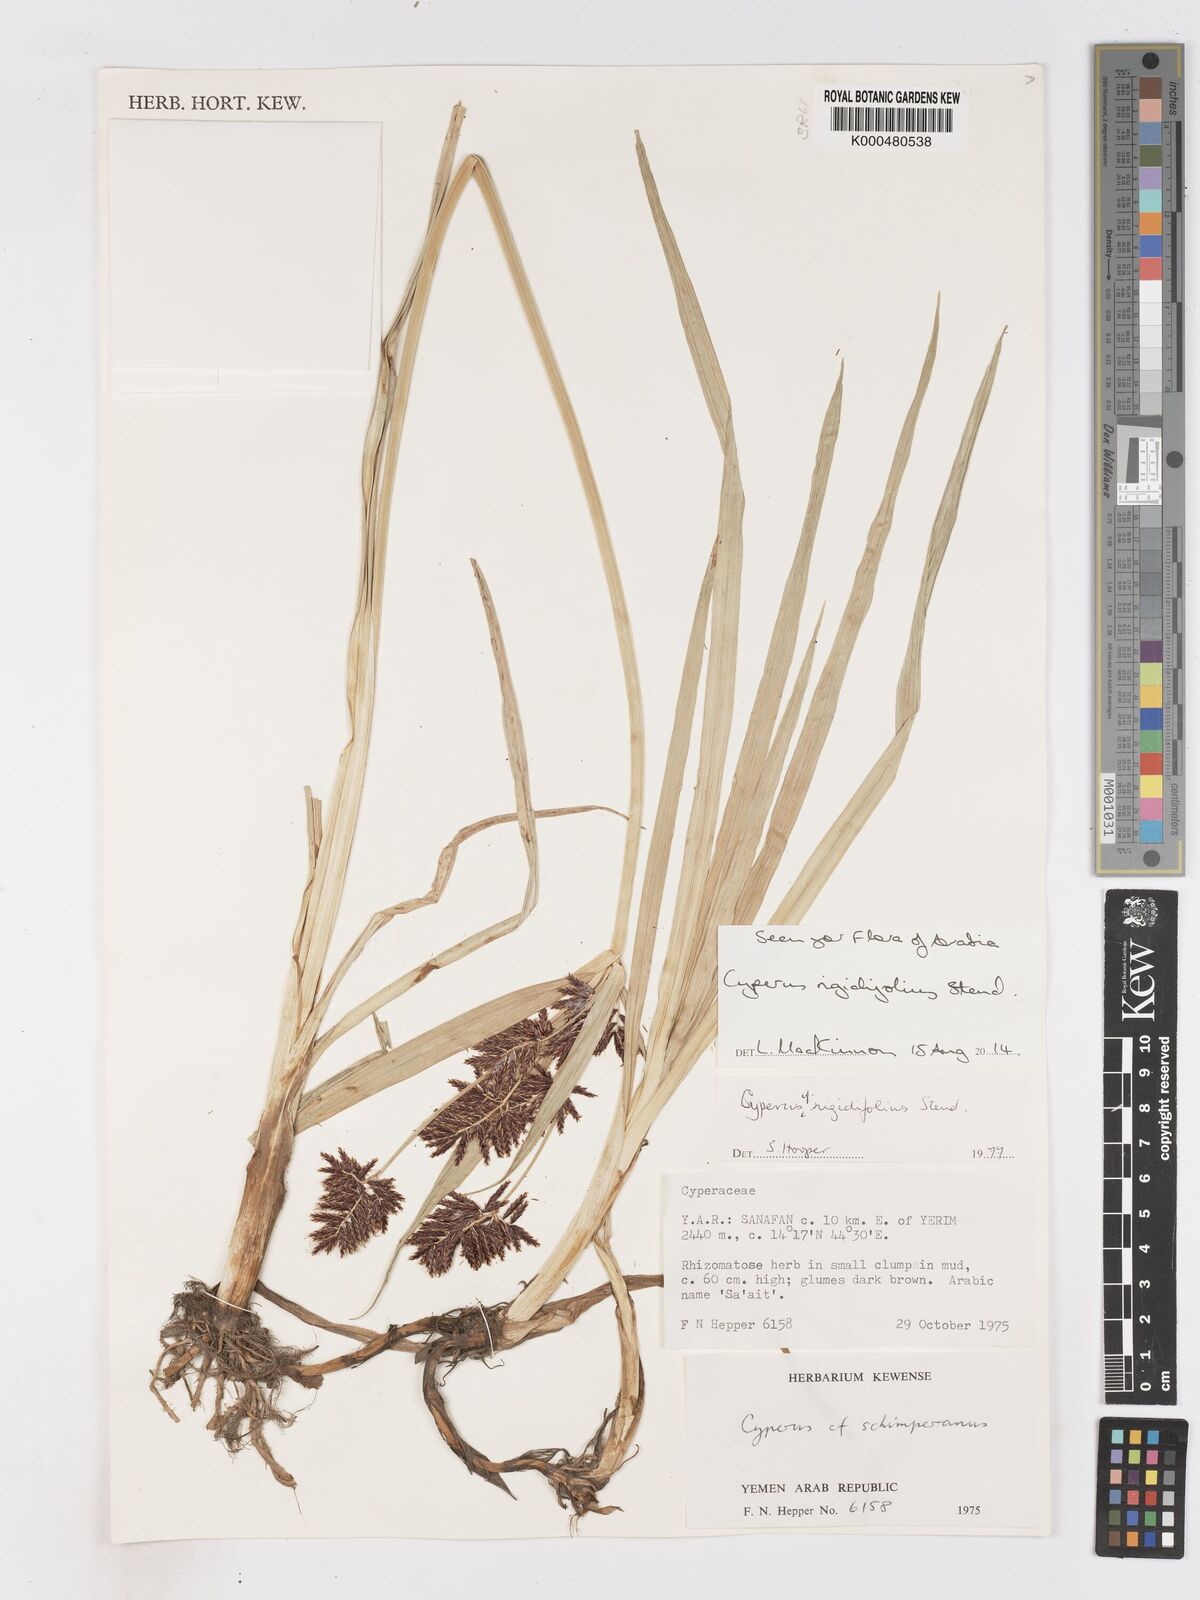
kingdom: Plantae
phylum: Tracheophyta
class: Liliopsida
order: Poales
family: Cyperaceae
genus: Cyperus
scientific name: Cyperus rigidifolius
